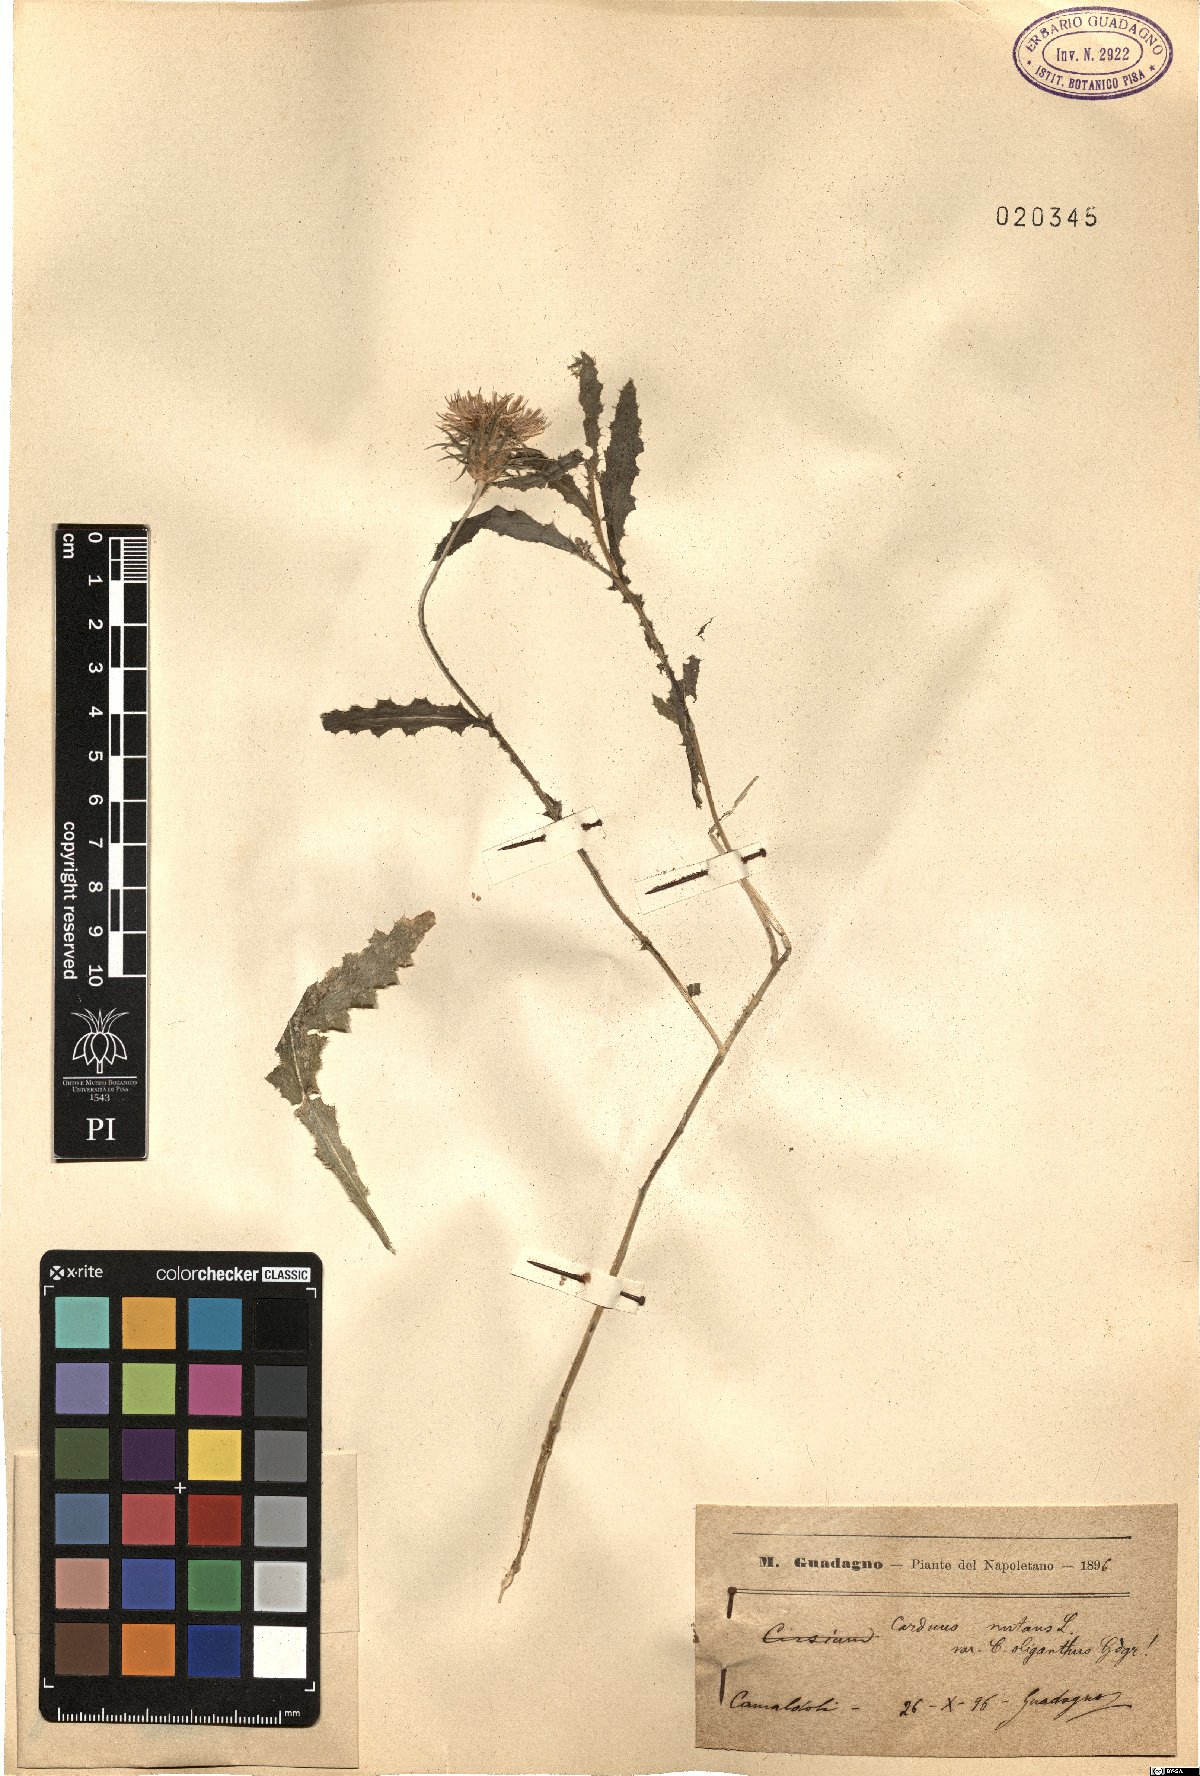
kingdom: Plantae
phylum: Tracheophyta
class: Magnoliopsida
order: Asterales
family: Asteraceae
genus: Carduus
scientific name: Carduus nutans
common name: Musk thistle
